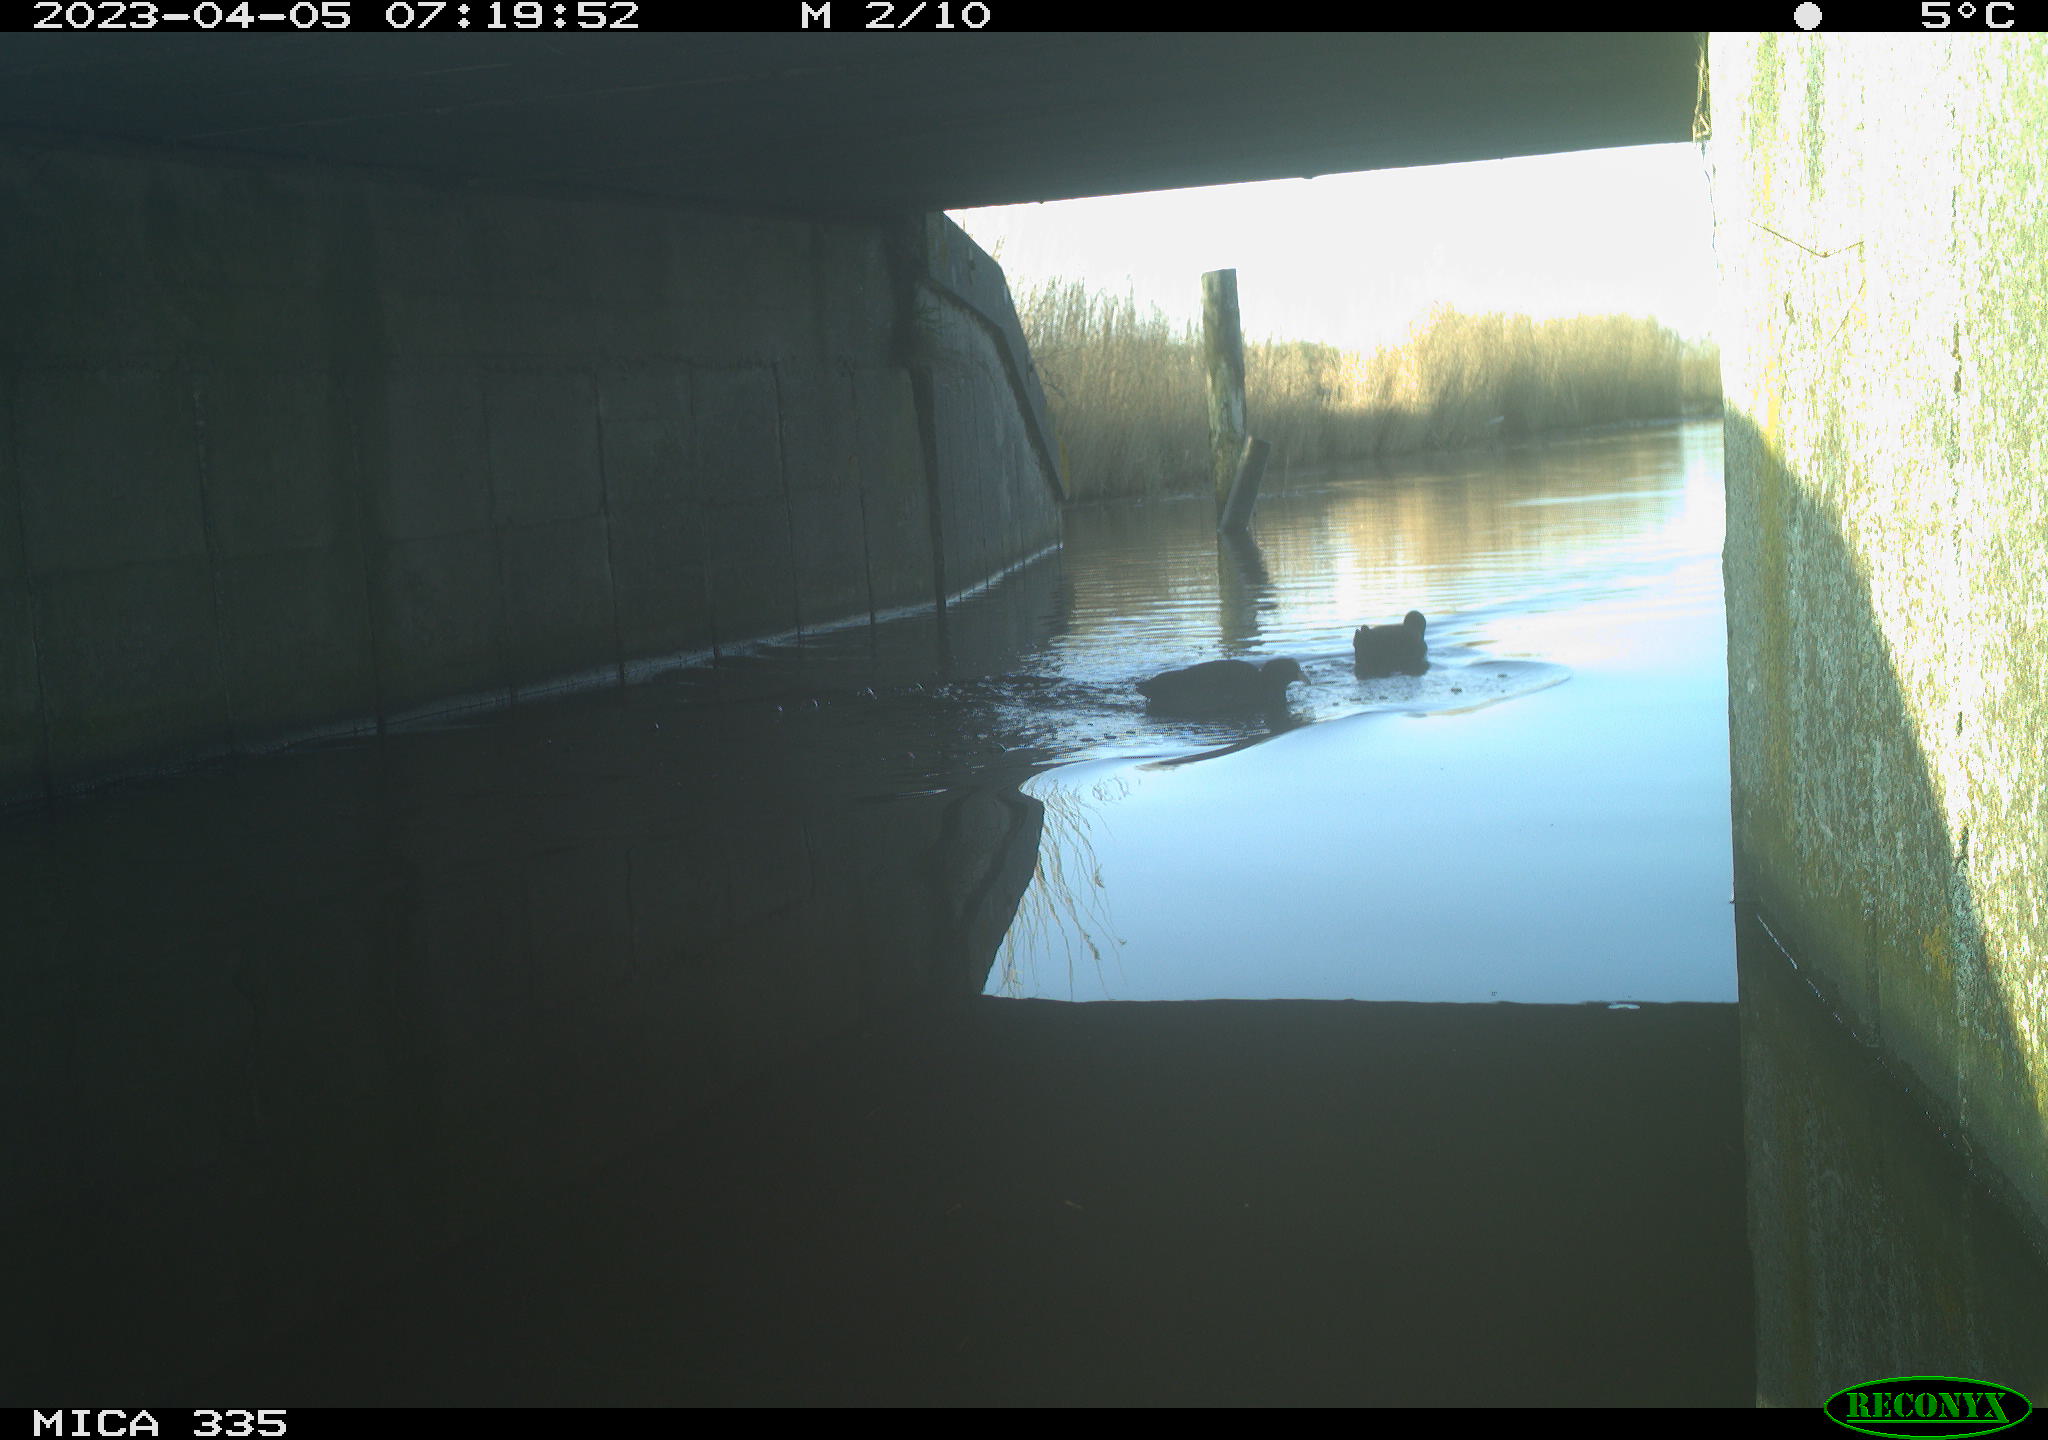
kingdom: Animalia
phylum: Chordata
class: Aves
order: Anseriformes
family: Anatidae
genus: Anas
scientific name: Anas
